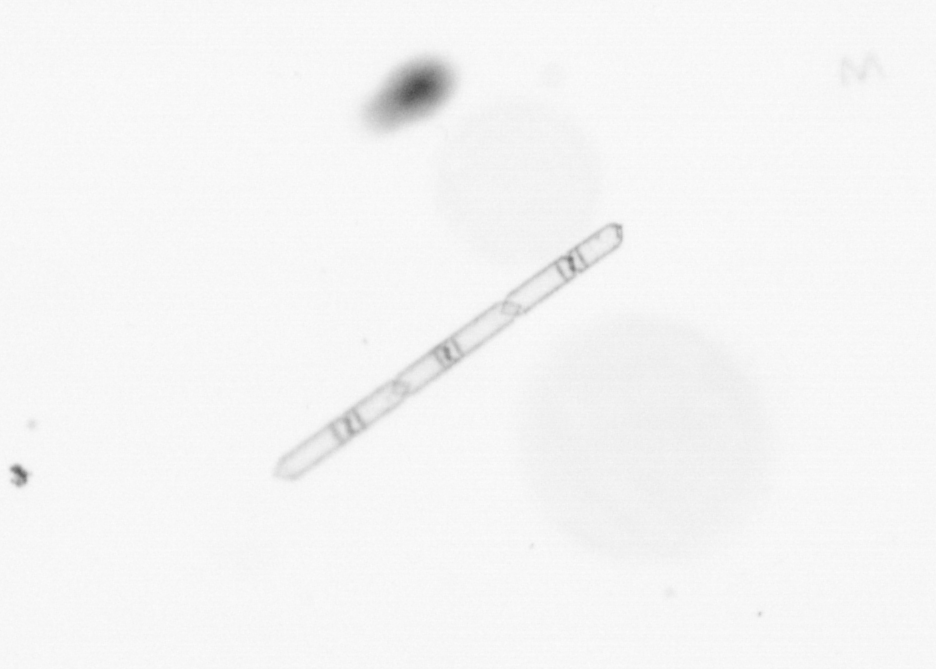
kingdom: Chromista
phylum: Ochrophyta
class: Bacillariophyceae
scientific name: Bacillariophyceae
